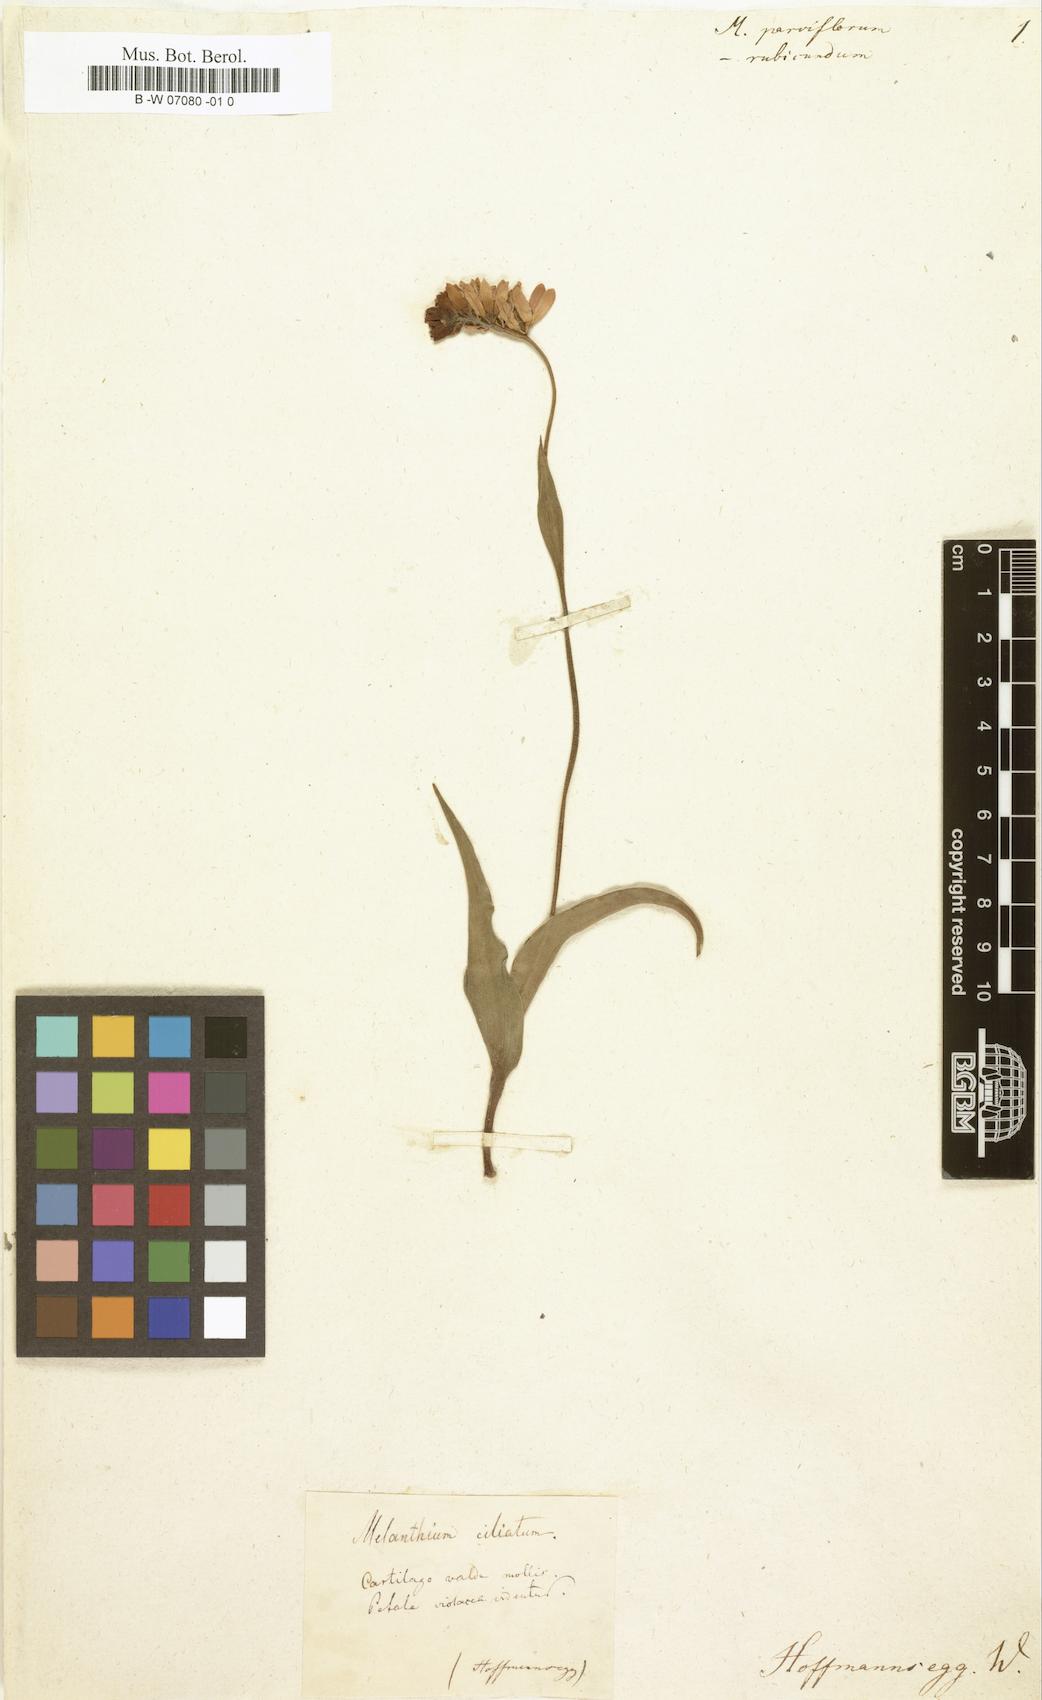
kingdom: Plantae
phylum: Tracheophyta
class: Liliopsida
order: Liliales
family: Melanthiaceae
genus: Melanthium
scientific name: Melanthium parviflorum
